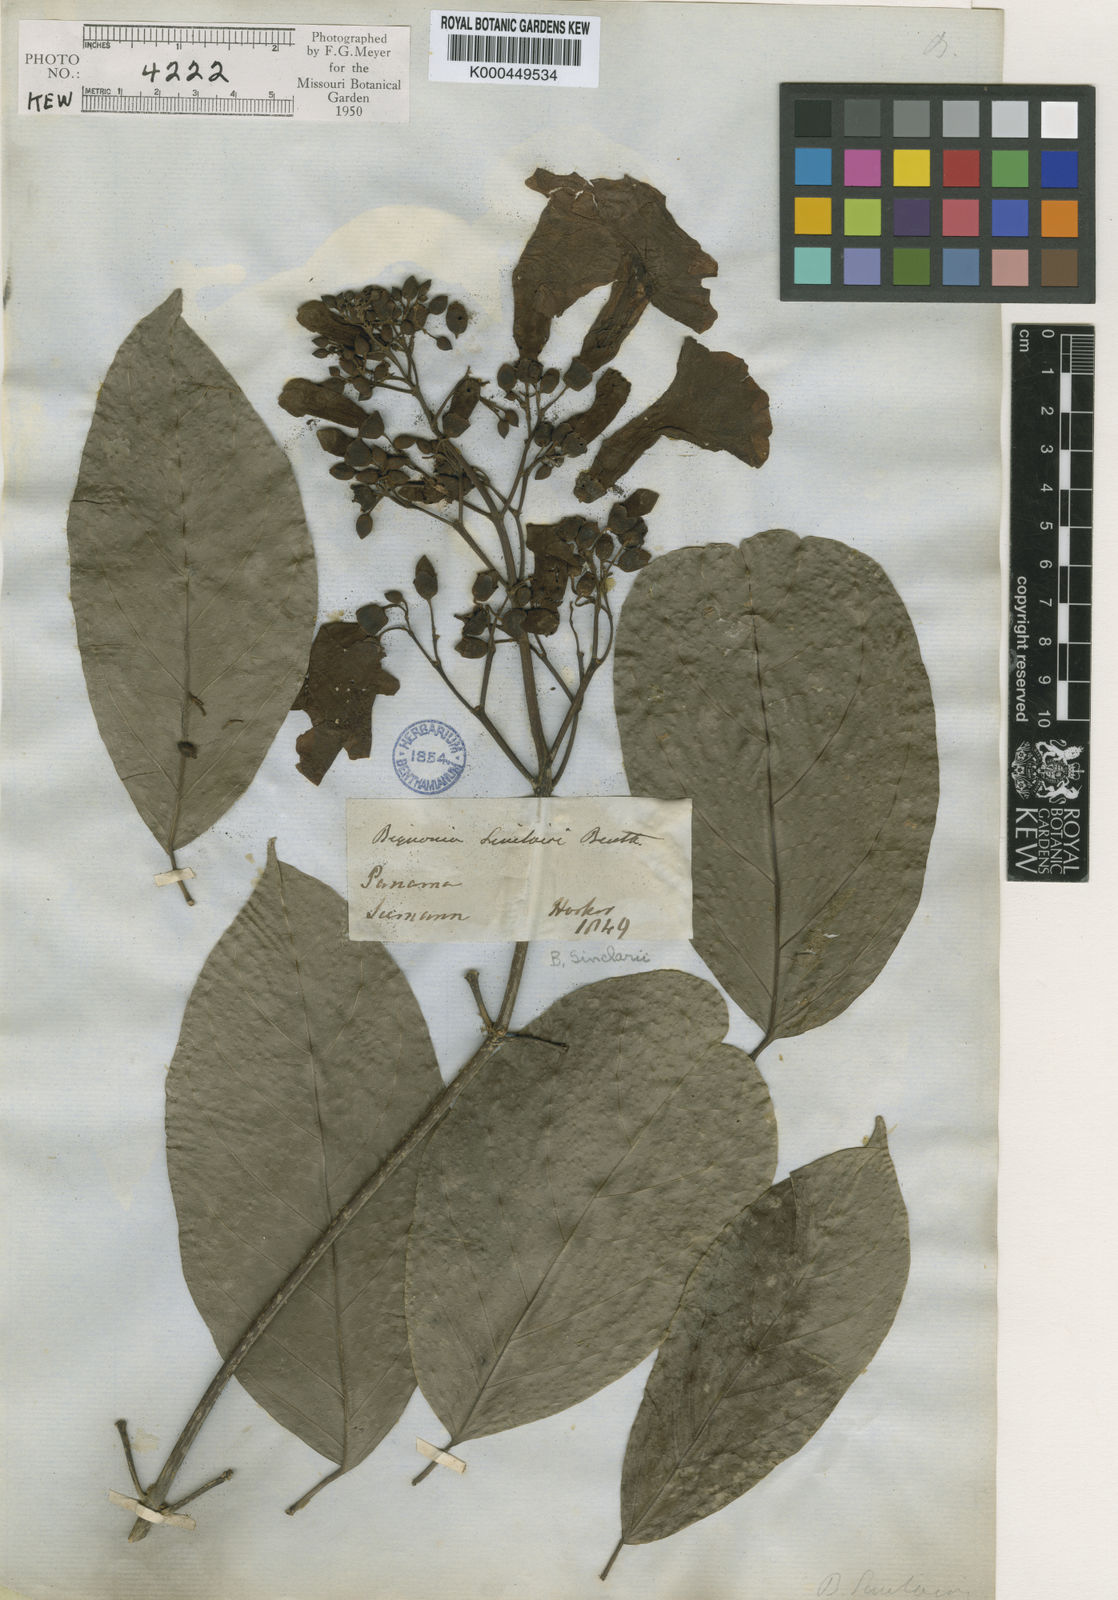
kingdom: Plantae
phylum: Tracheophyta
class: Magnoliopsida
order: Lamiales
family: Bignoniaceae
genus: Tanaecium
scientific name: Tanaecium pyramidatum
